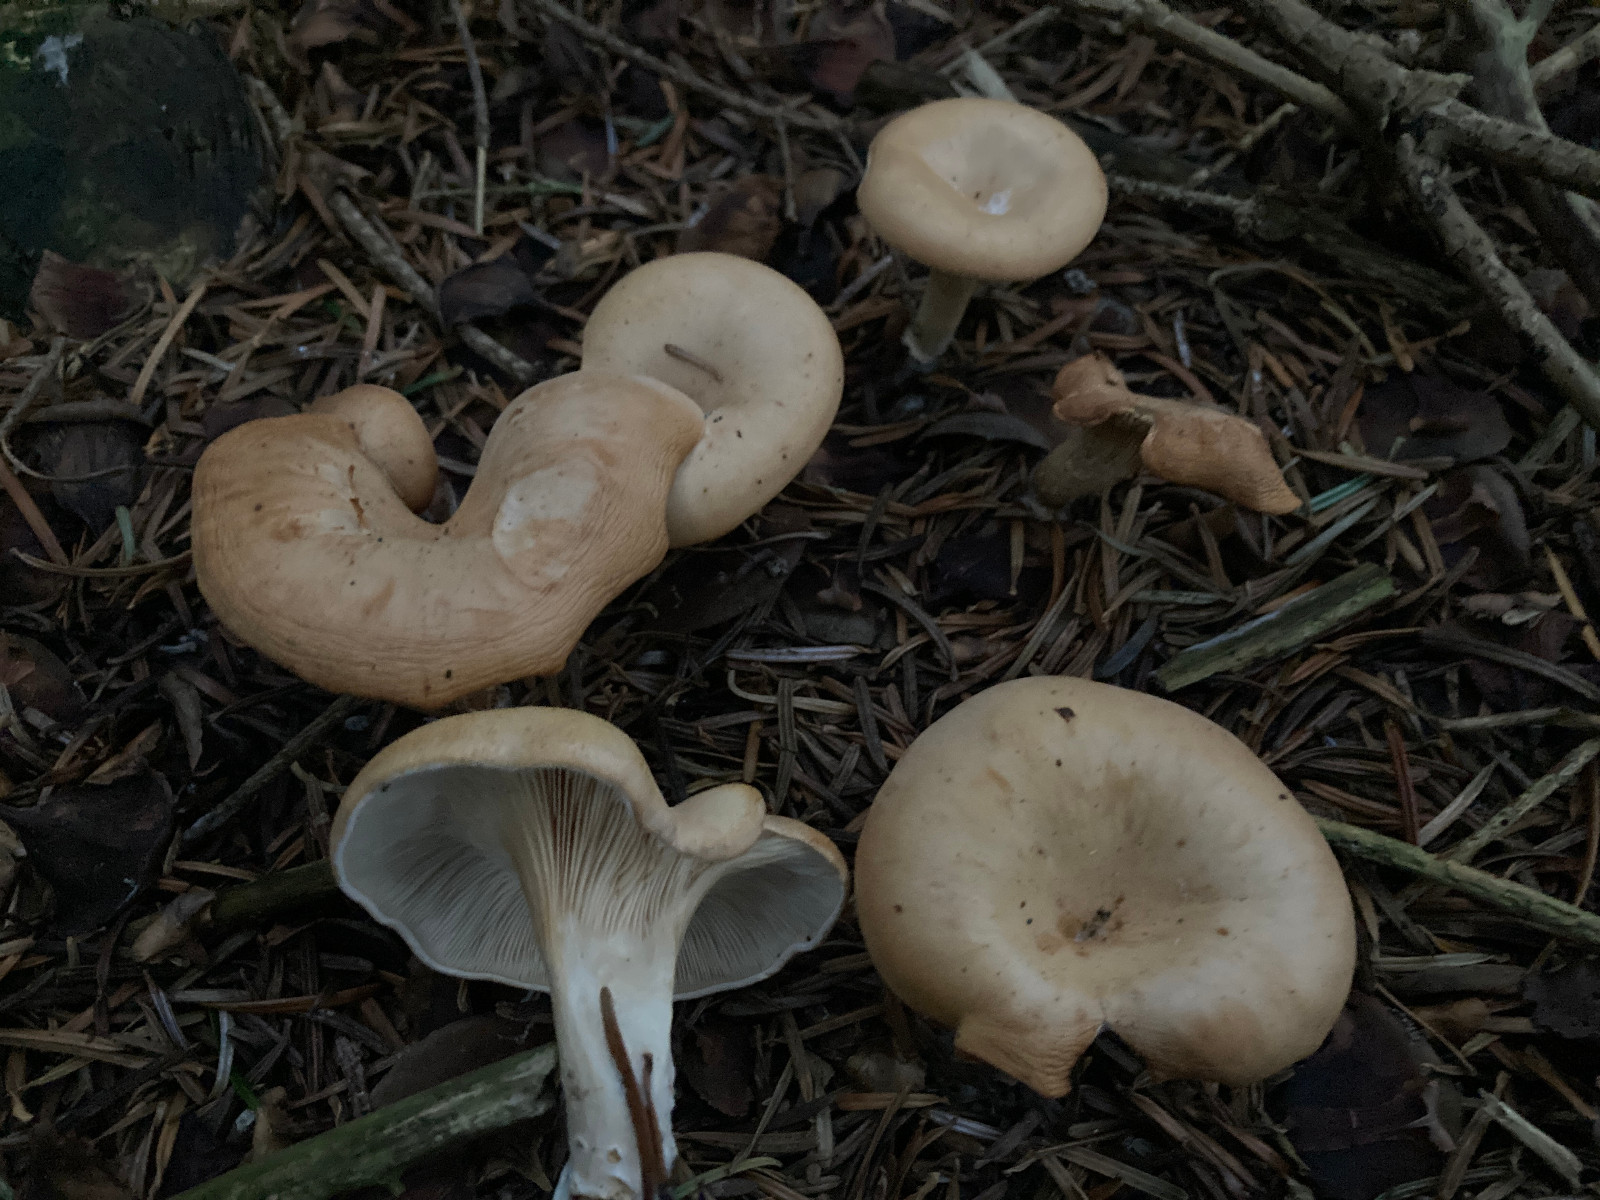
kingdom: Fungi
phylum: Basidiomycota
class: Agaricomycetes
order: Agaricales
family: Tricholomataceae
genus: Paralepista
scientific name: Paralepista gilva
